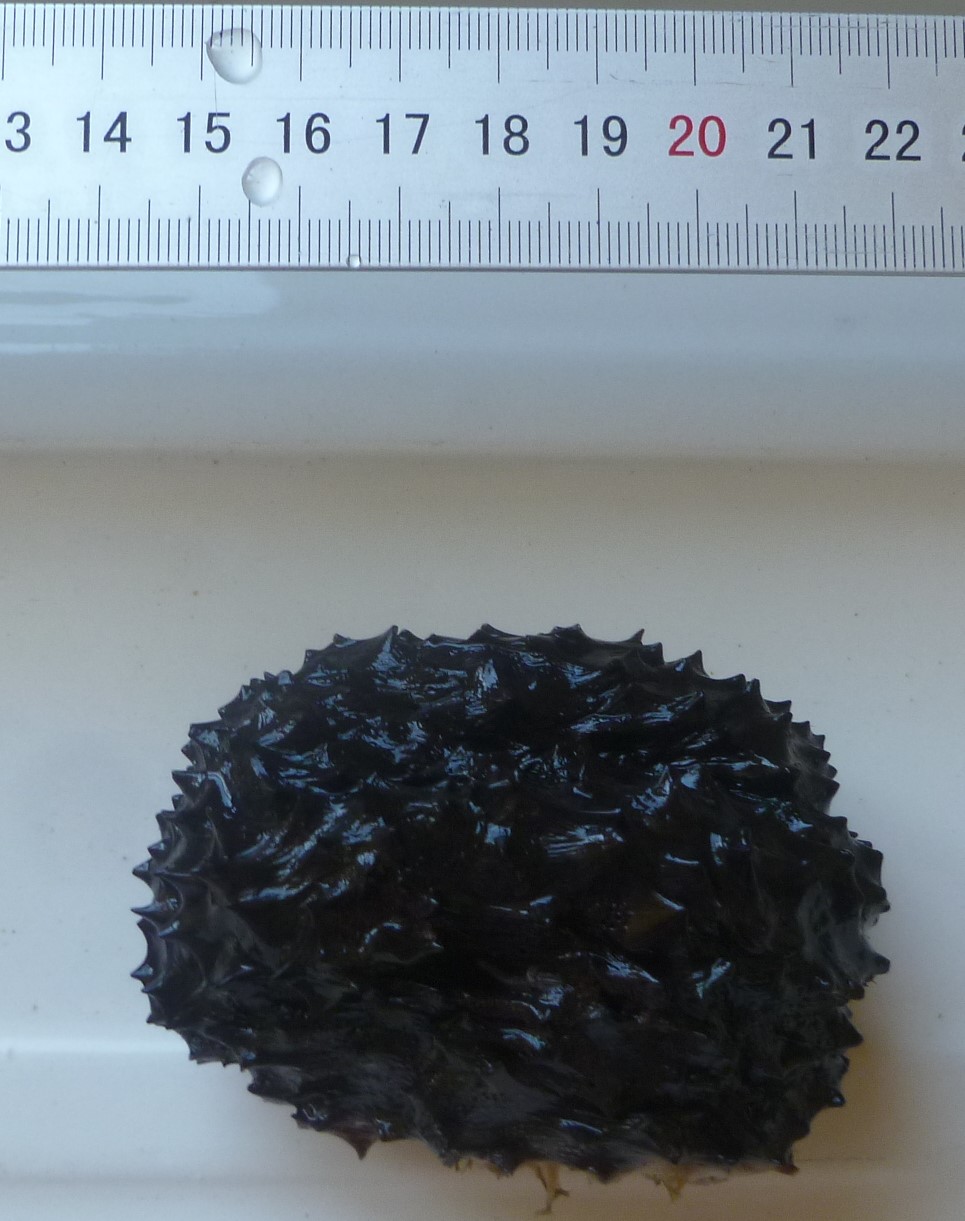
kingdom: Animalia
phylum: Porifera
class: Demospongiae
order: Dictyoceratida
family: Irciniidae
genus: Ircinia
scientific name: Ircinia
